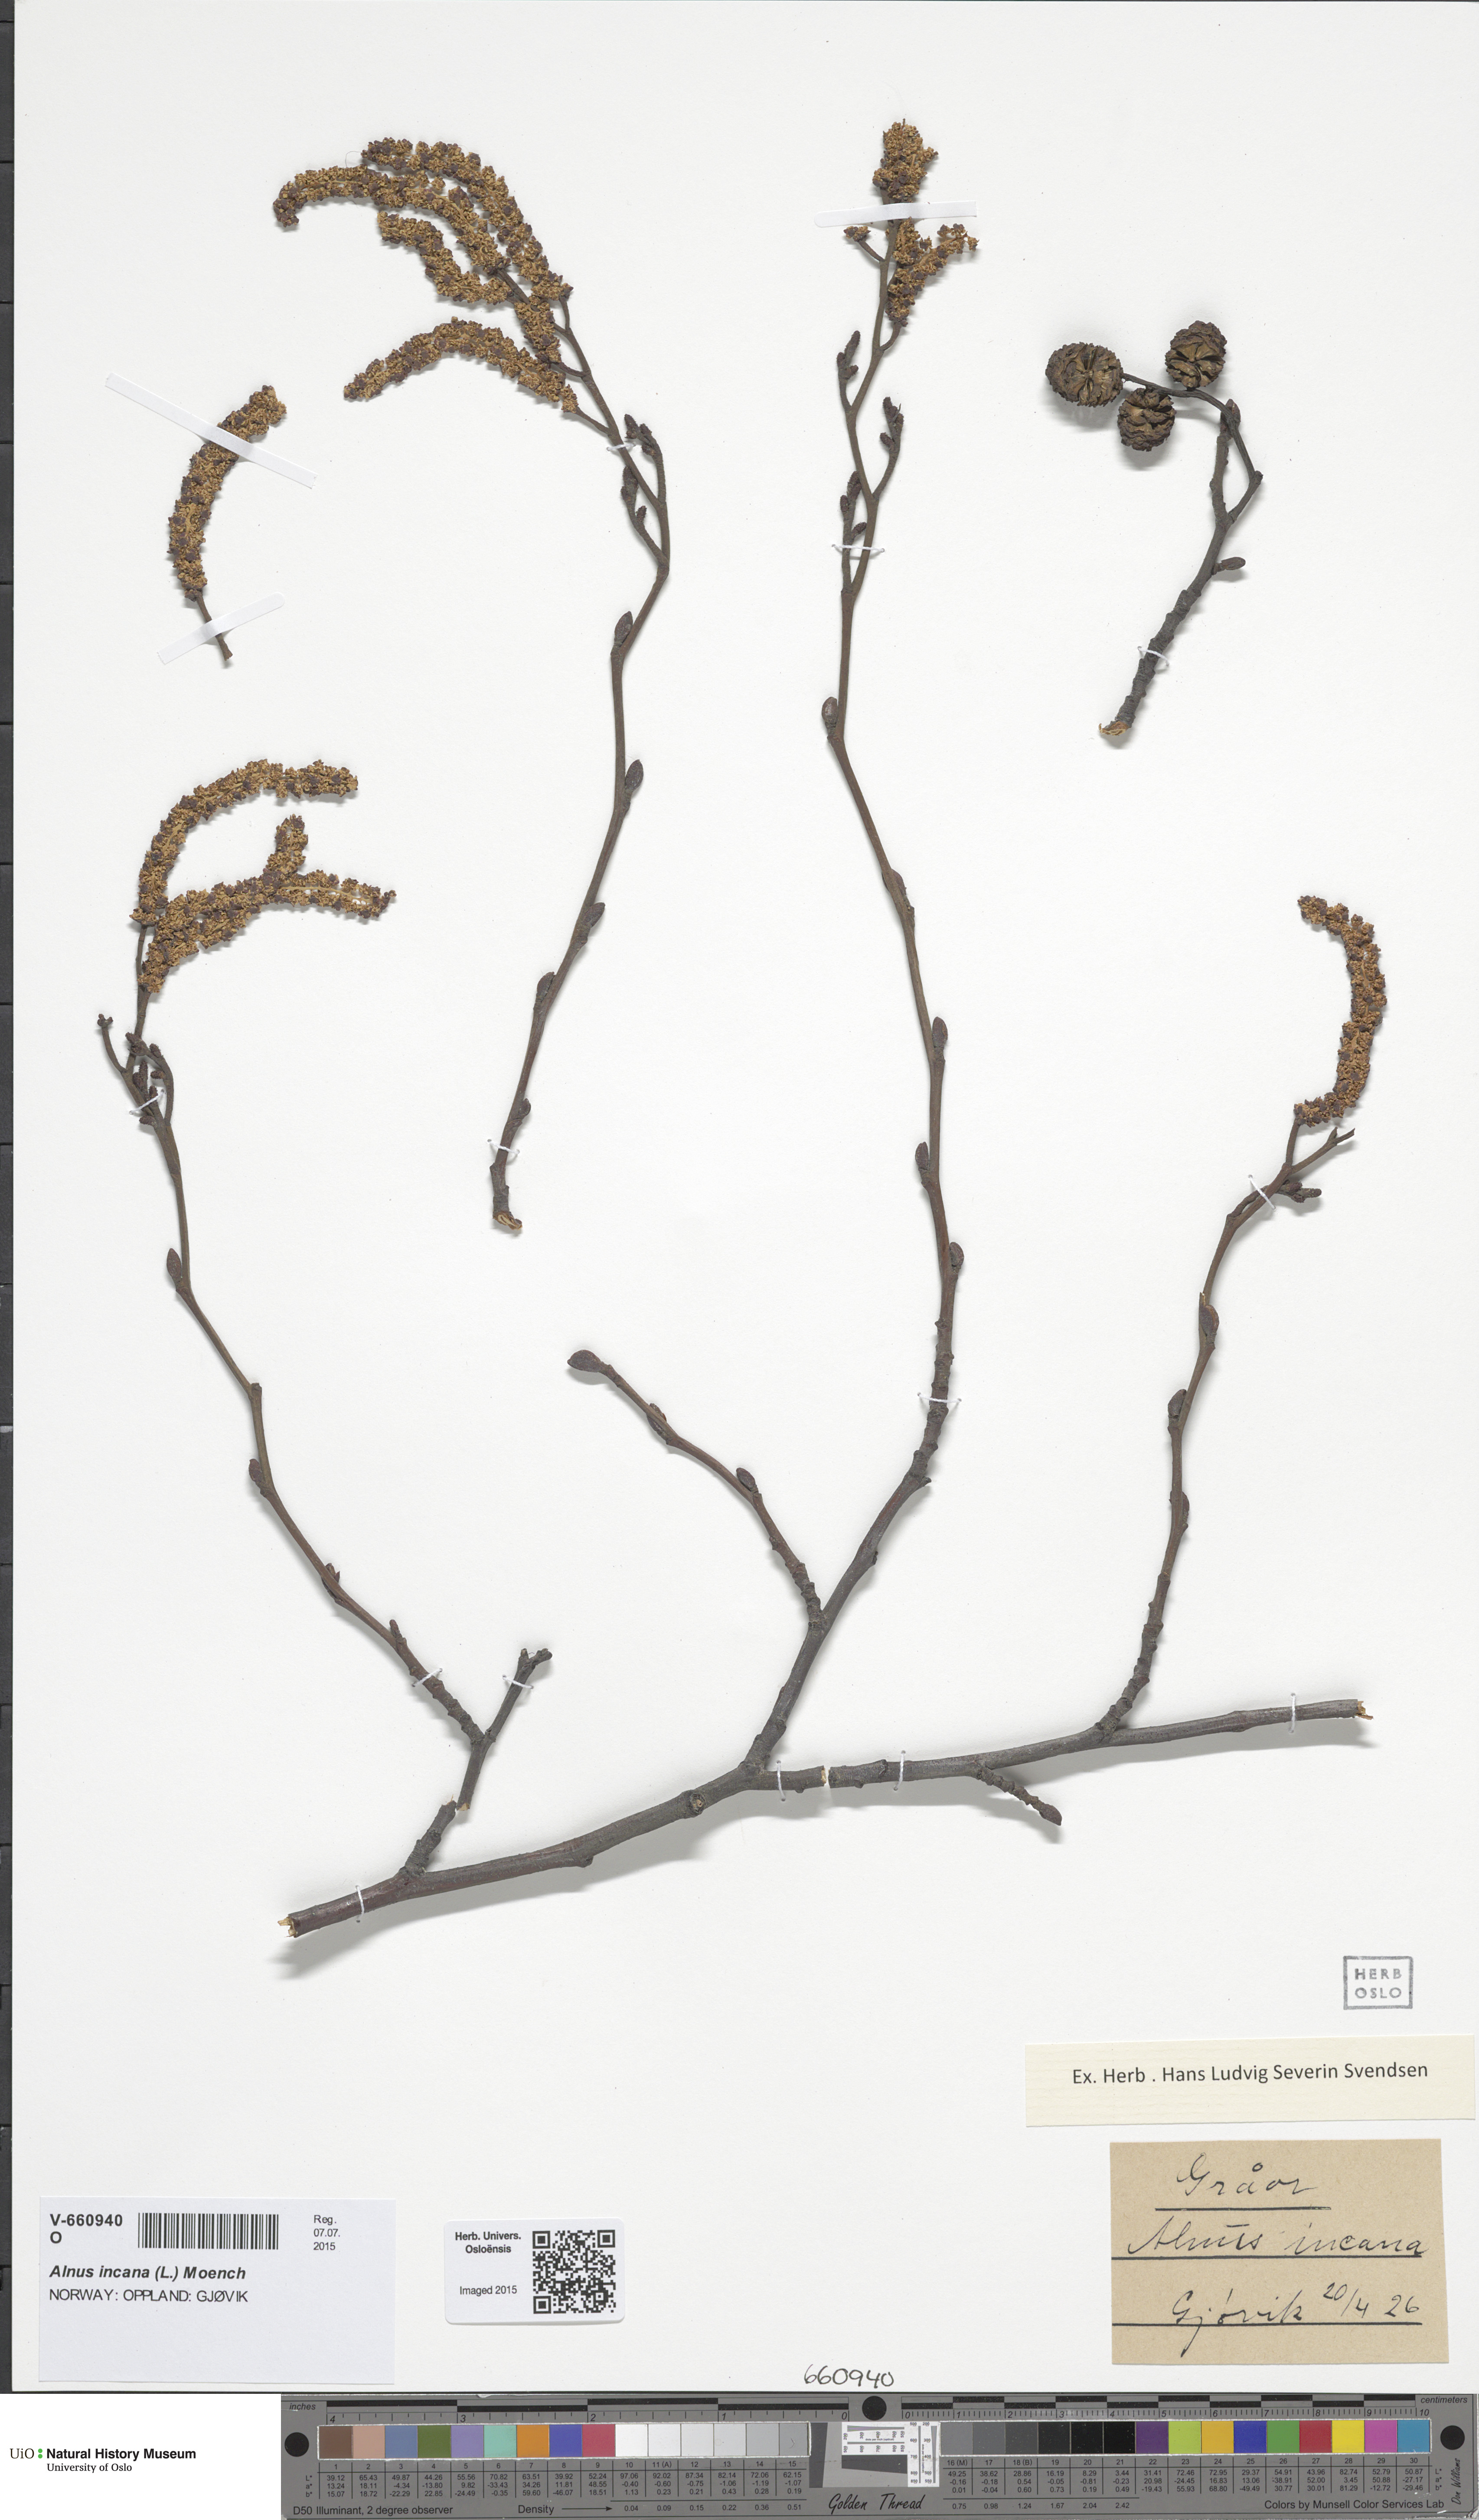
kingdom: Plantae
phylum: Tracheophyta
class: Magnoliopsida
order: Fagales
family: Betulaceae
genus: Alnus
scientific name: Alnus incana
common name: Grey alder
